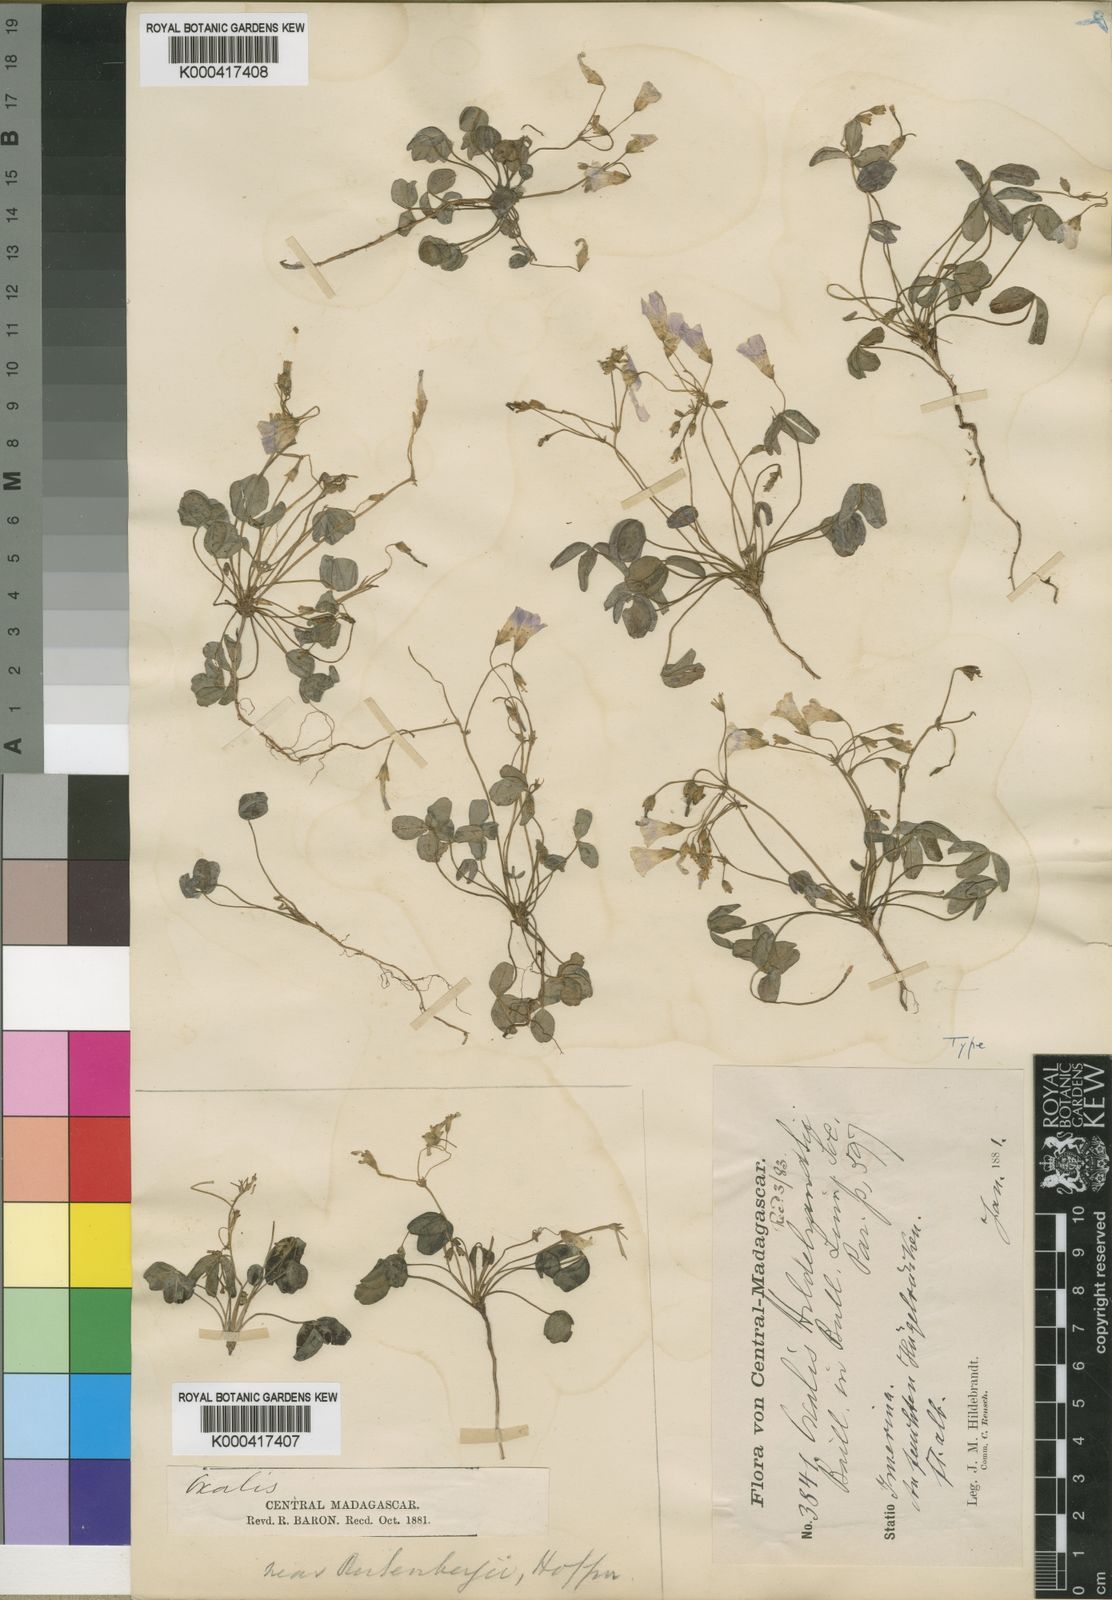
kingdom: Plantae
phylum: Tracheophyta
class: Magnoliopsida
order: Oxalidales
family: Oxalidaceae
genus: Oxalis
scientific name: Oxalis rutenbergii
